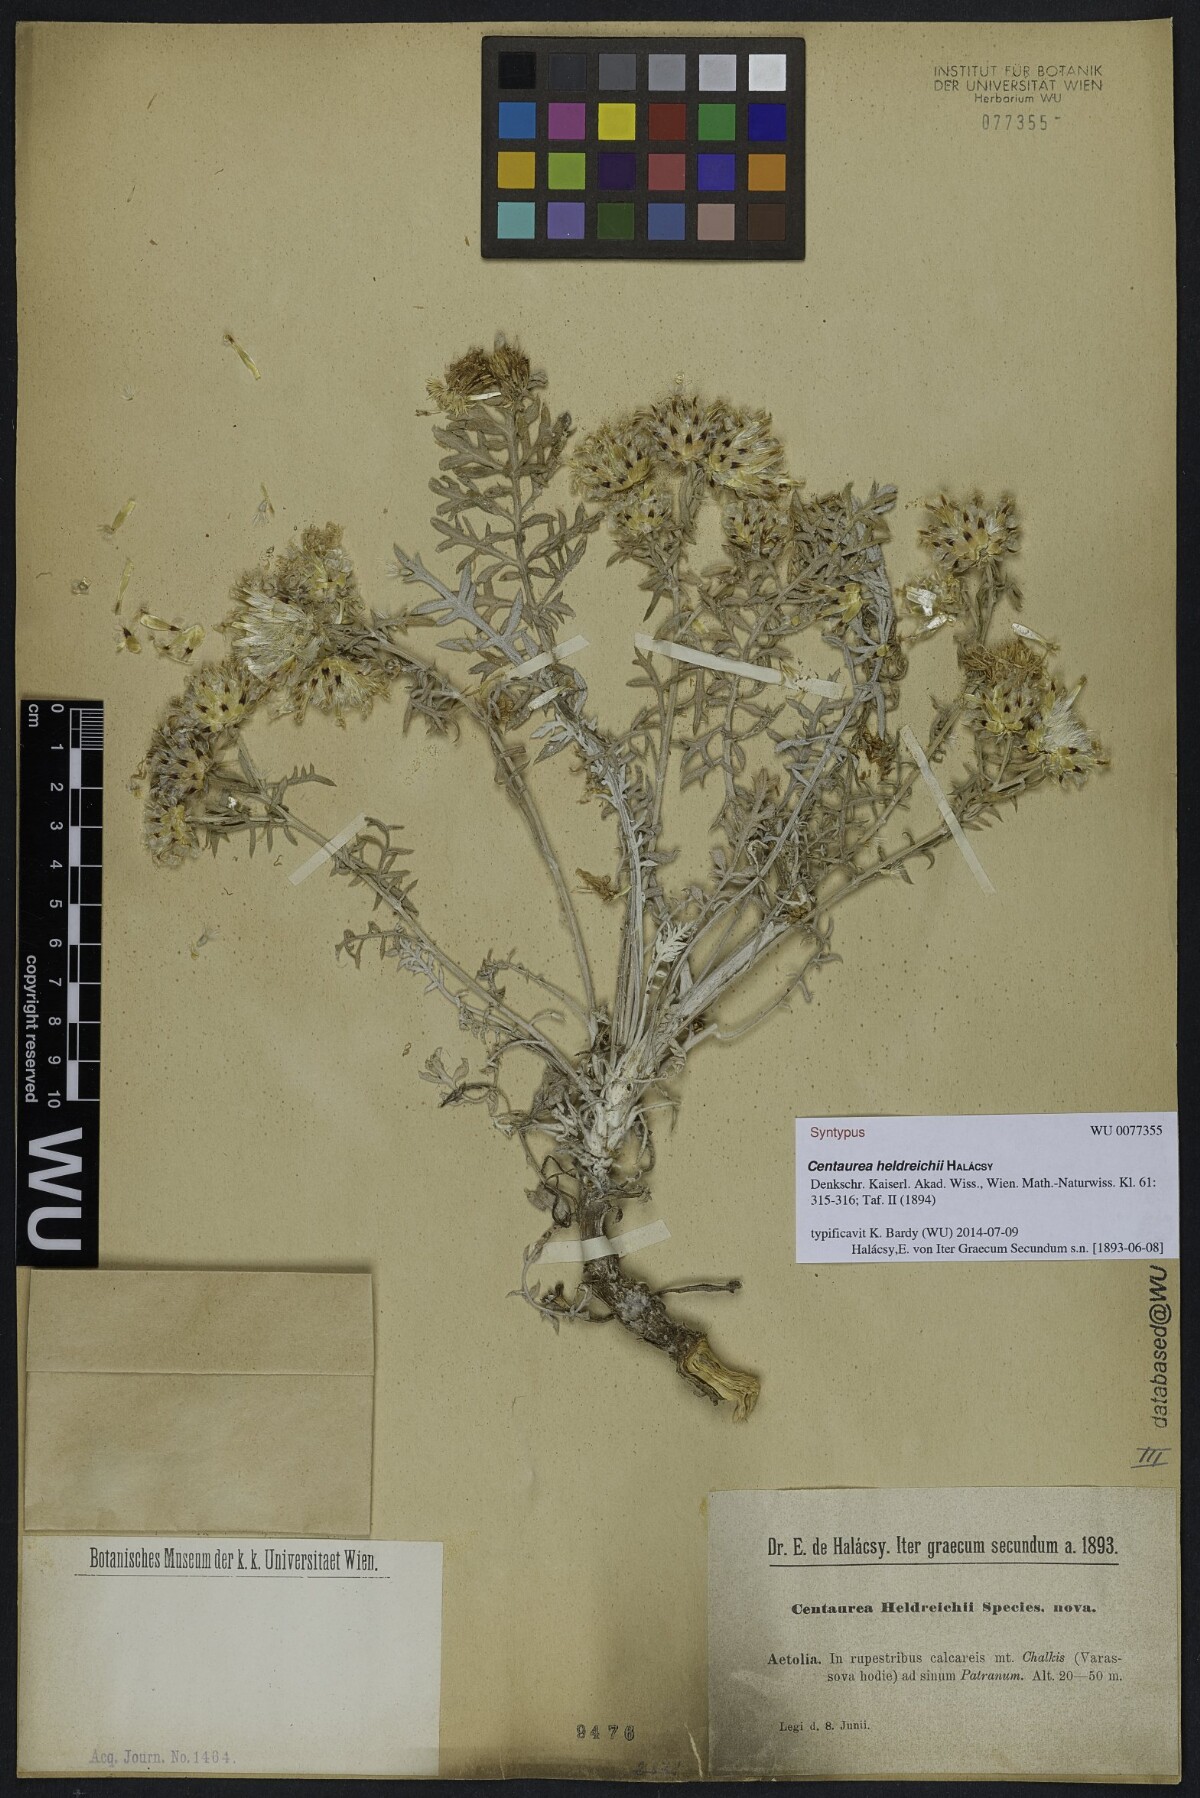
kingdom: Plantae
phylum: Tracheophyta
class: Magnoliopsida
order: Asterales
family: Asteraceae
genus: Centaurea
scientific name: Centaurea heldreichii
